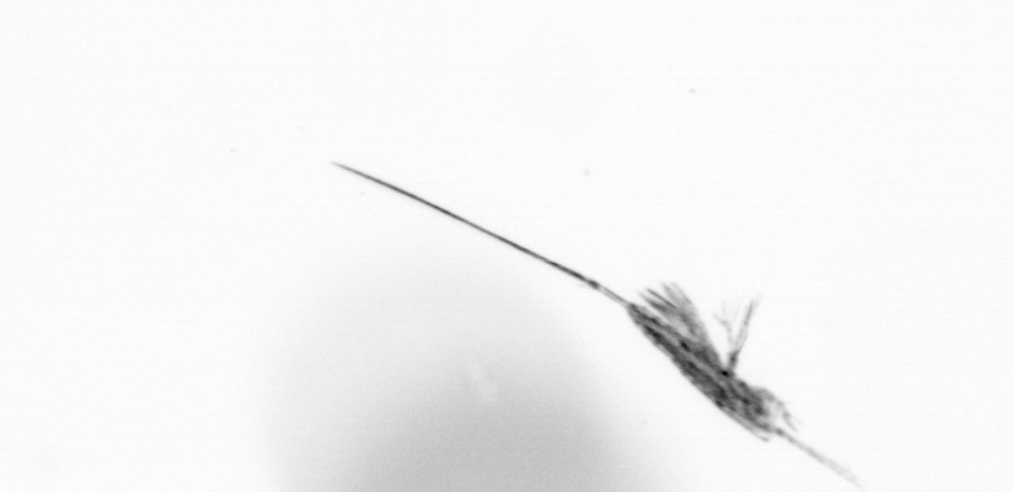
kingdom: Animalia
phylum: Arthropoda
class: Copepoda
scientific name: Copepoda
